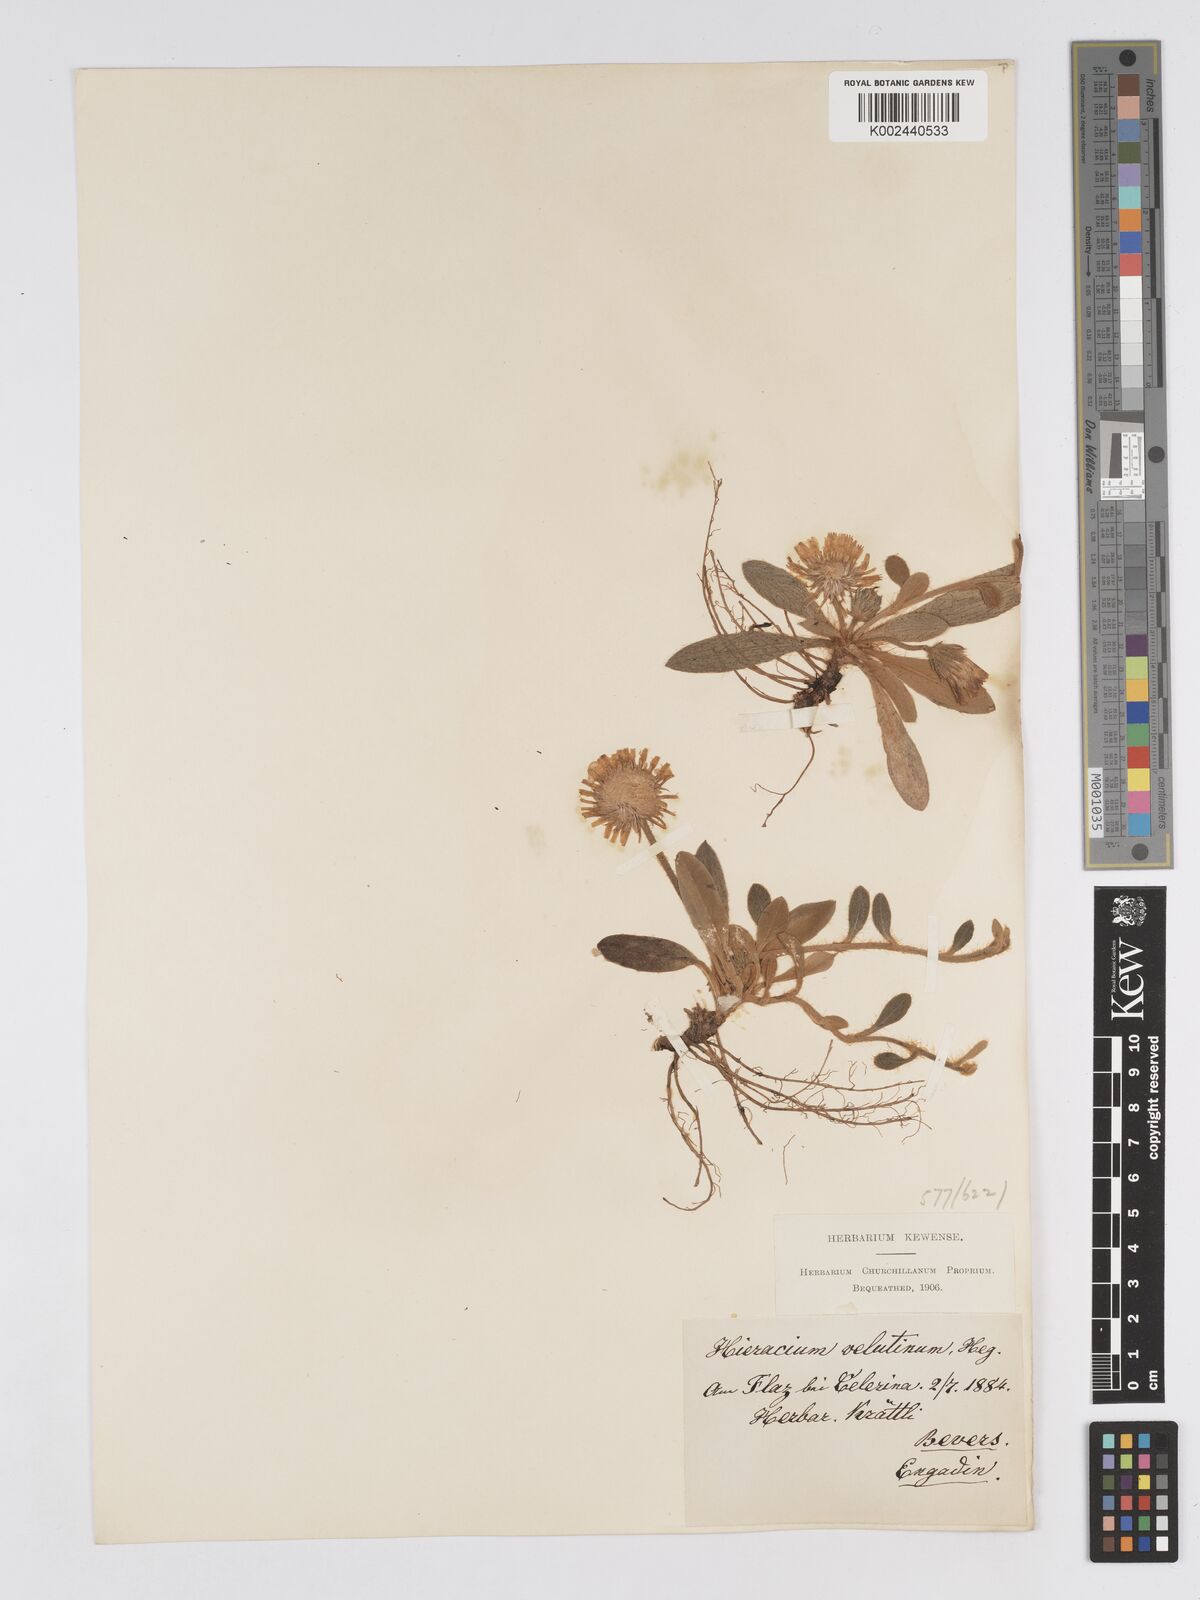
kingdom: Plantae
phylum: Tracheophyta
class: Magnoliopsida
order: Asterales
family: Asteraceae
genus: Pilosella
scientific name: Pilosella velutina
